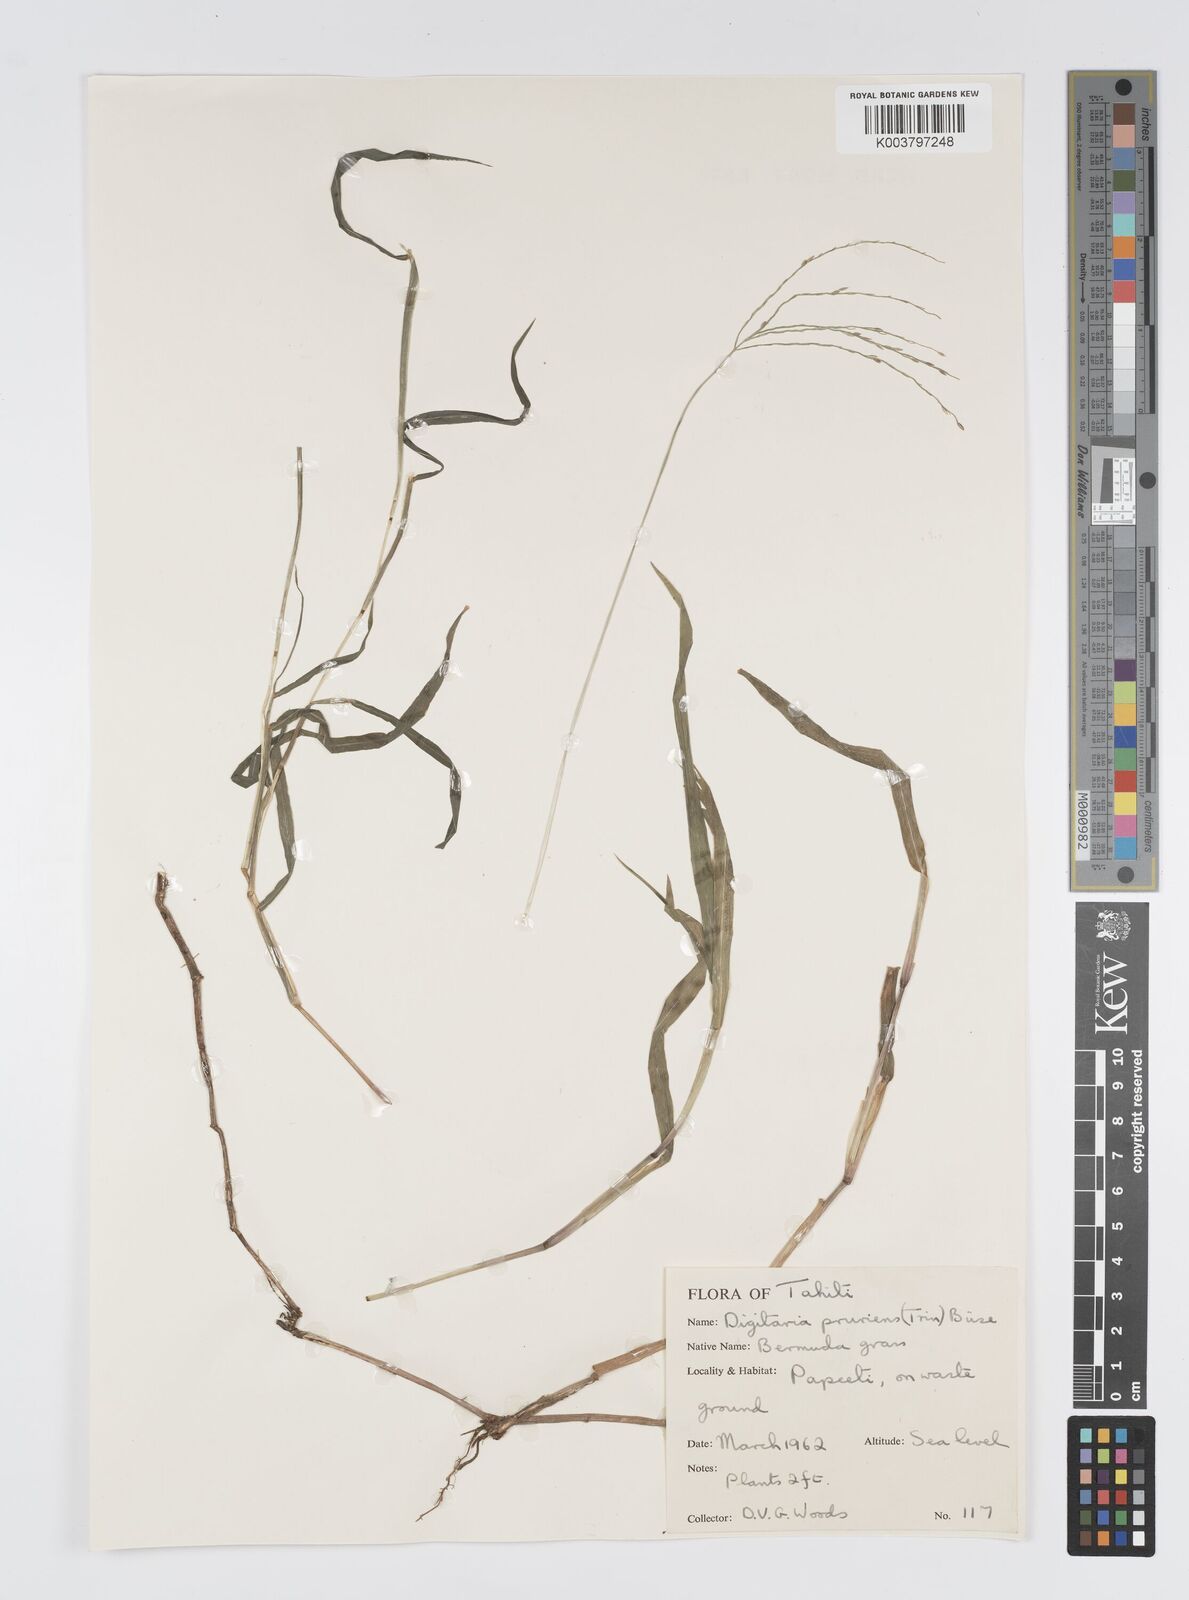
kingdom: Plantae
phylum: Tracheophyta
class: Liliopsida
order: Poales
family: Poaceae
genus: Digitaria
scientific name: Digitaria ciliaris
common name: Tropical finger-grass
